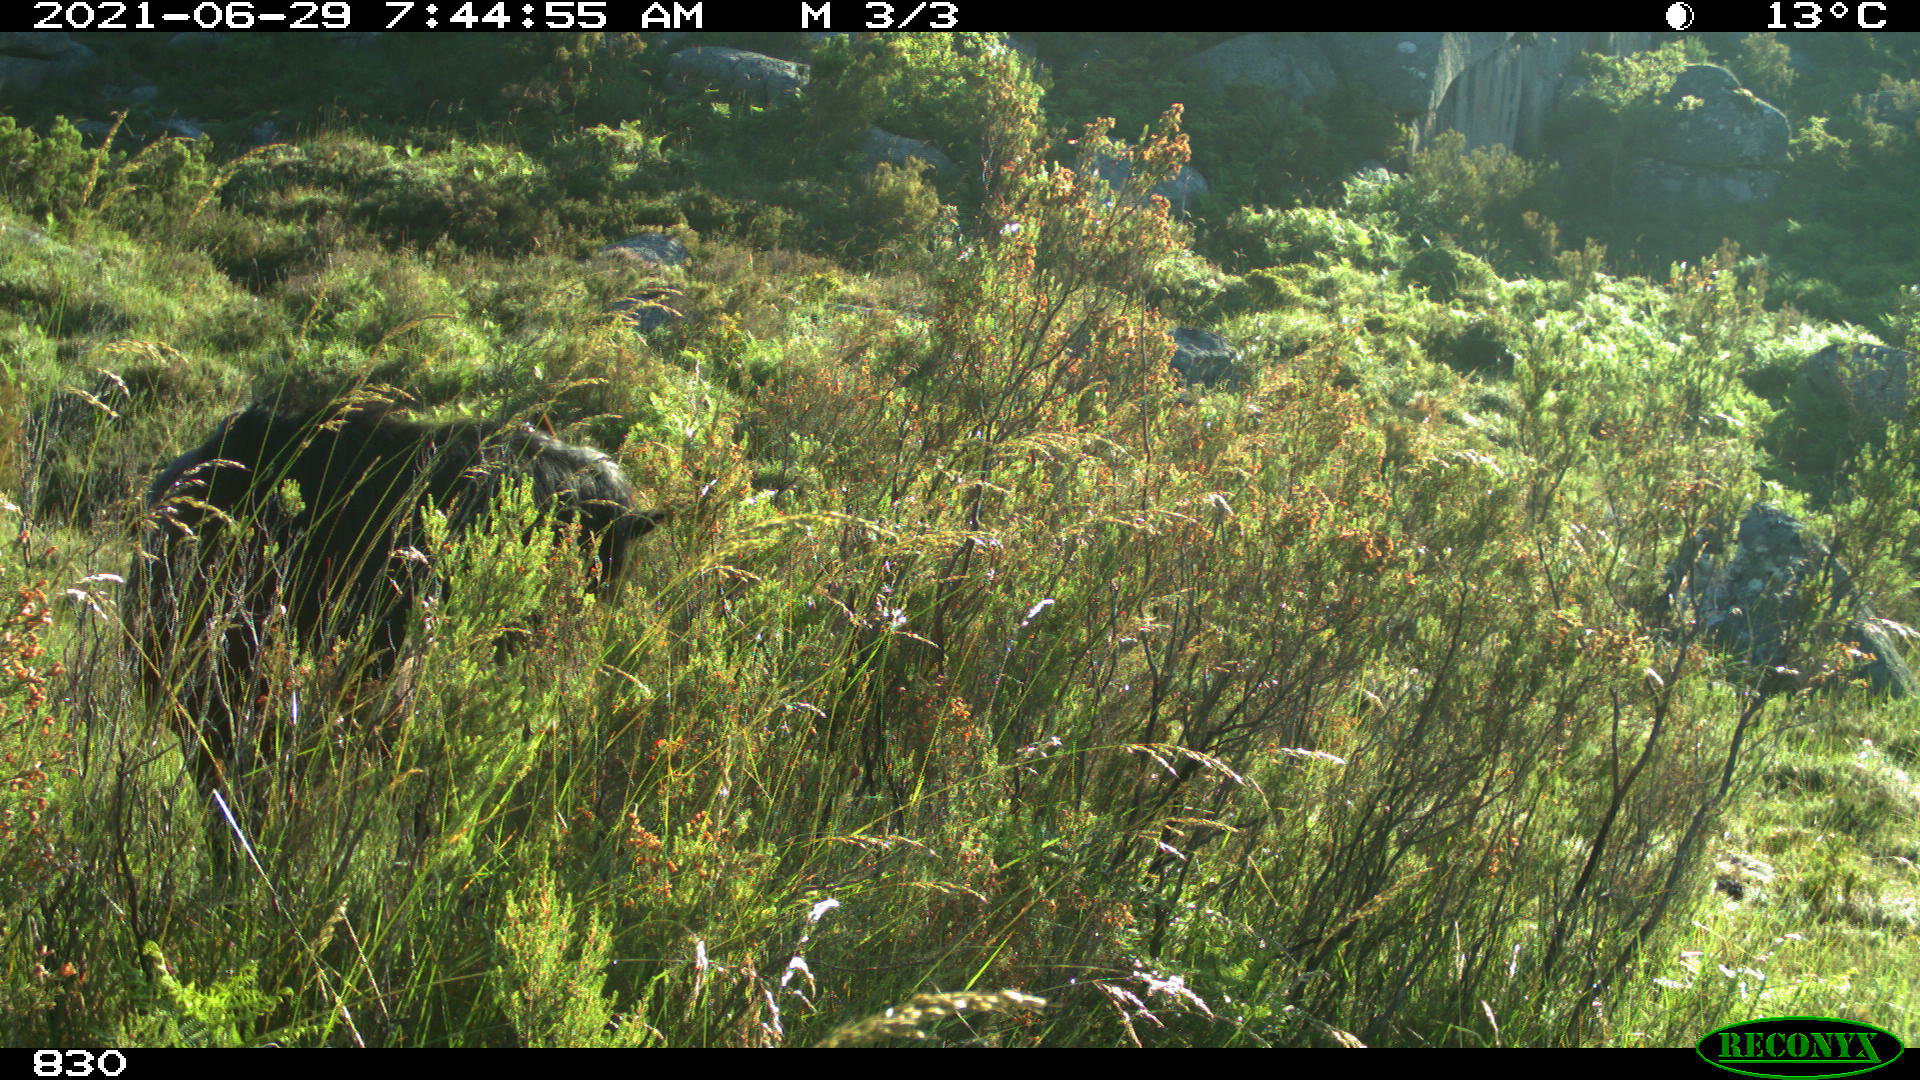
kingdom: Animalia
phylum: Chordata
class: Mammalia
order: Perissodactyla
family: Equidae
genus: Equus
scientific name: Equus caballus
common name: Horse
